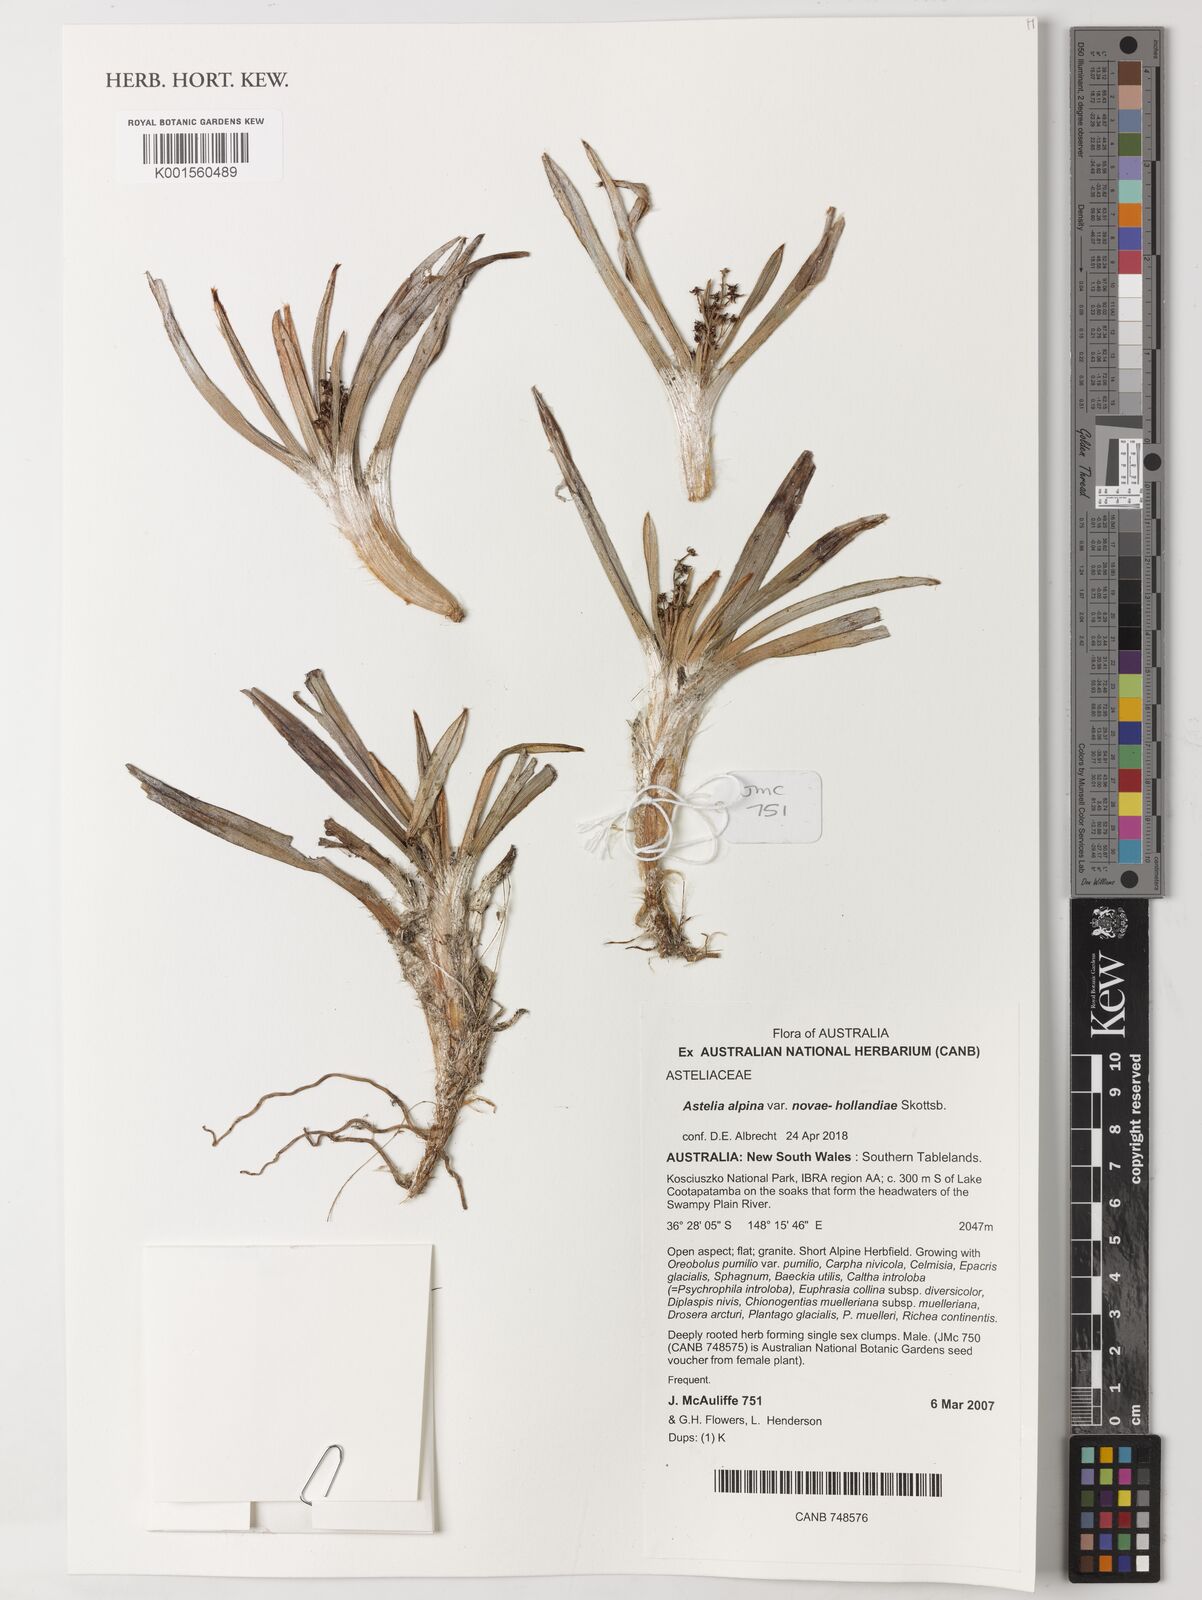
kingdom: Plantae
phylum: Tracheophyta
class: Liliopsida
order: Asparagales
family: Asteliaceae
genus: Astelia
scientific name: Astelia alpina
